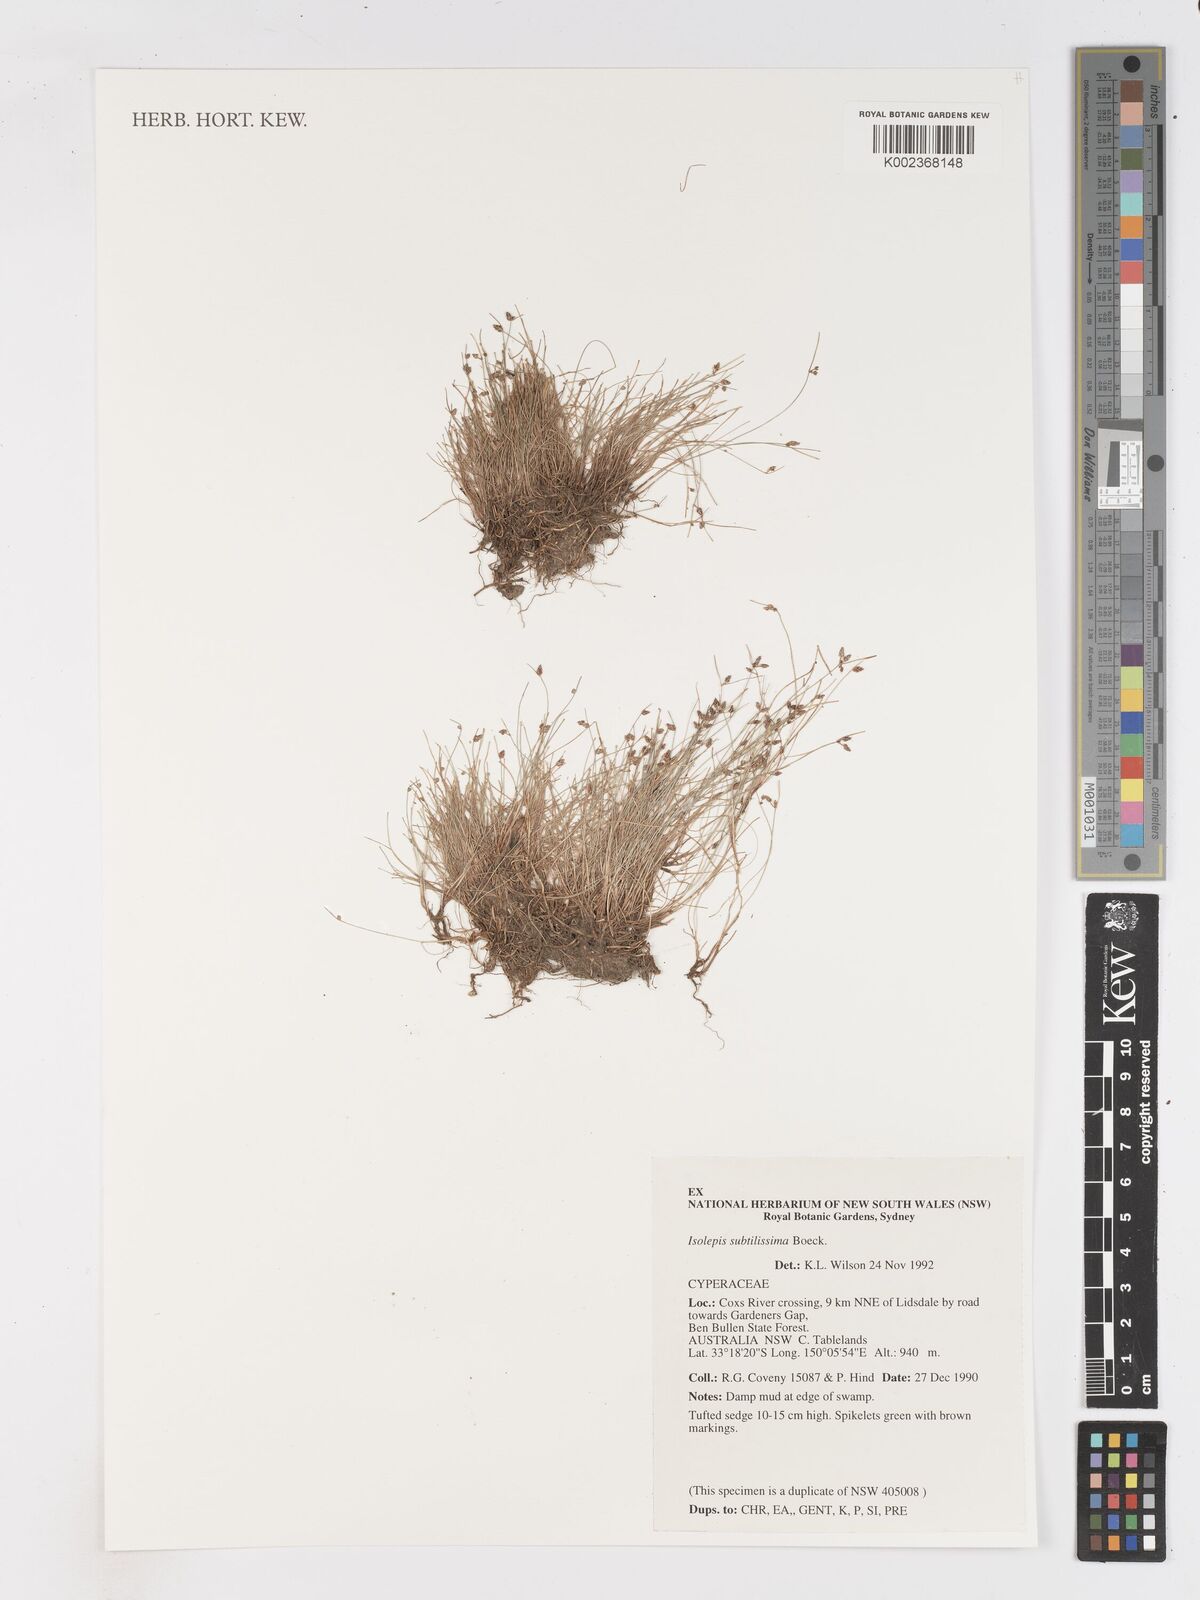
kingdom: Plantae
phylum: Tracheophyta
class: Liliopsida
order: Poales
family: Cyperaceae
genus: Isolepis
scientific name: Isolepis subtilissima
